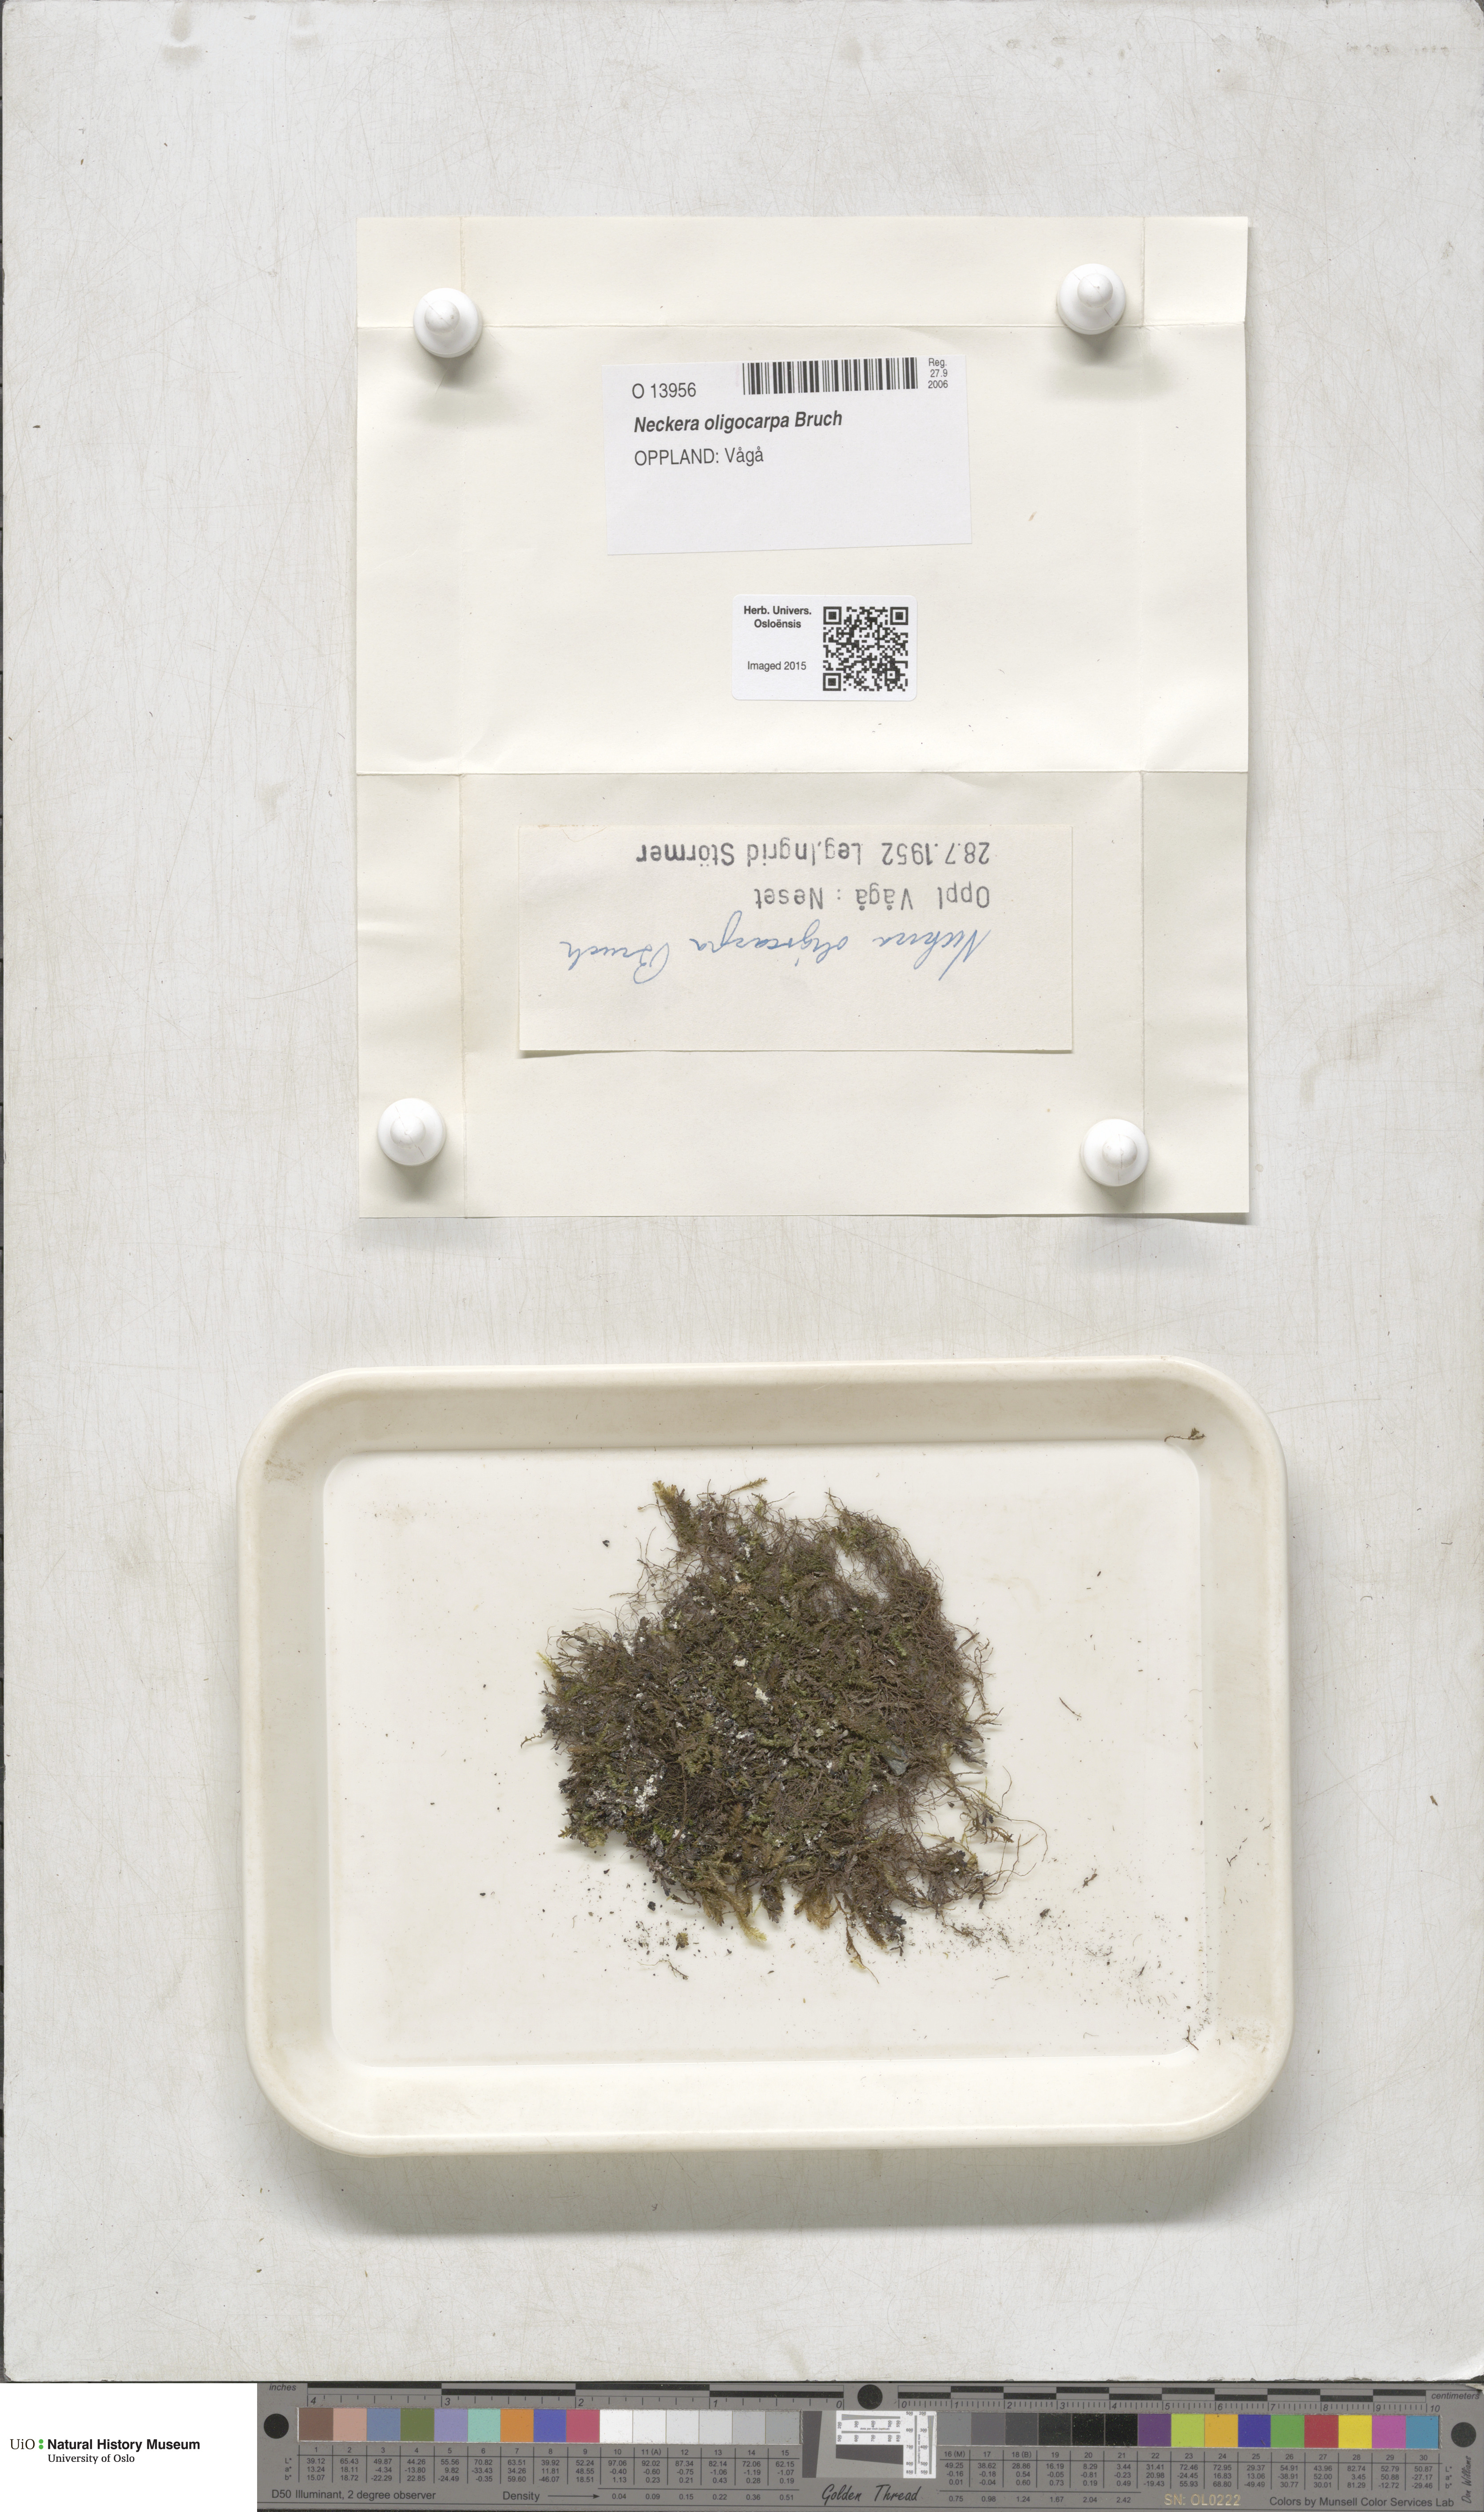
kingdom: Plantae
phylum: Bryophyta
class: Bryopsida
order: Hypnales
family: Neckeraceae
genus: Neckera
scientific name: Neckera oligocarpa
